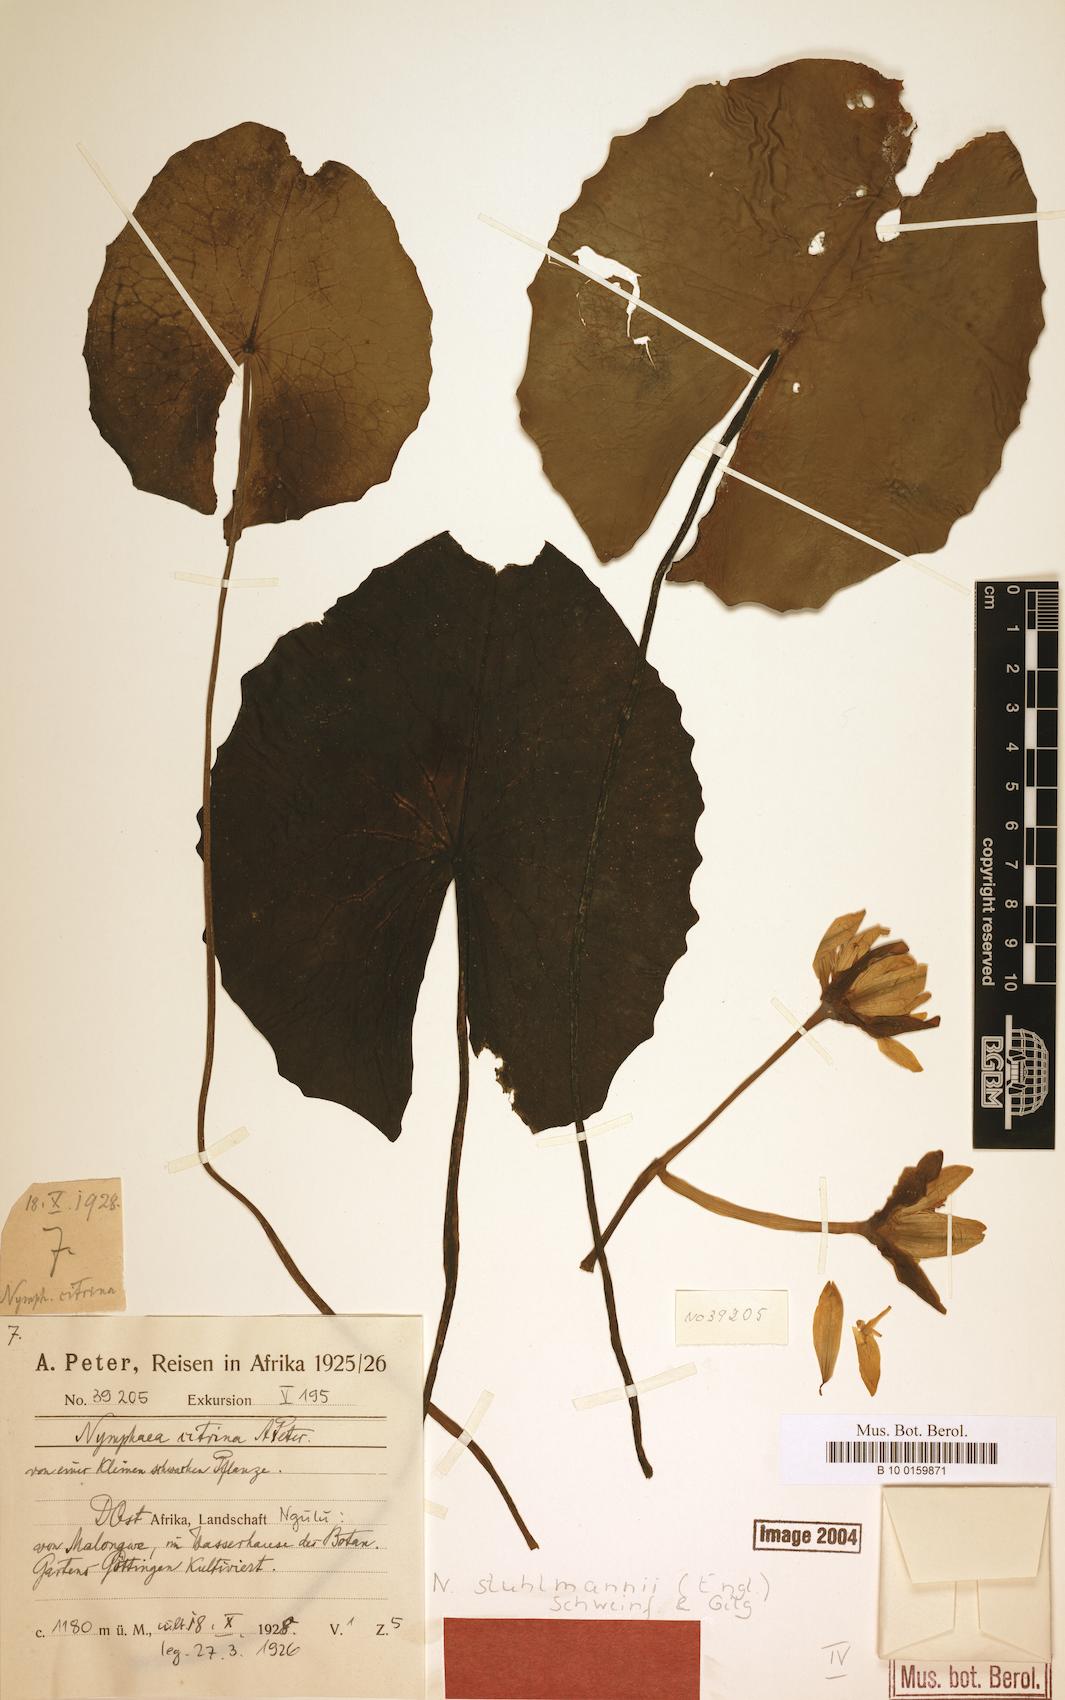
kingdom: Plantae
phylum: Tracheophyta
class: Magnoliopsida
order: Nymphaeales
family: Nymphaeaceae
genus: Nymphaea
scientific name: Nymphaea stuhlmannii
